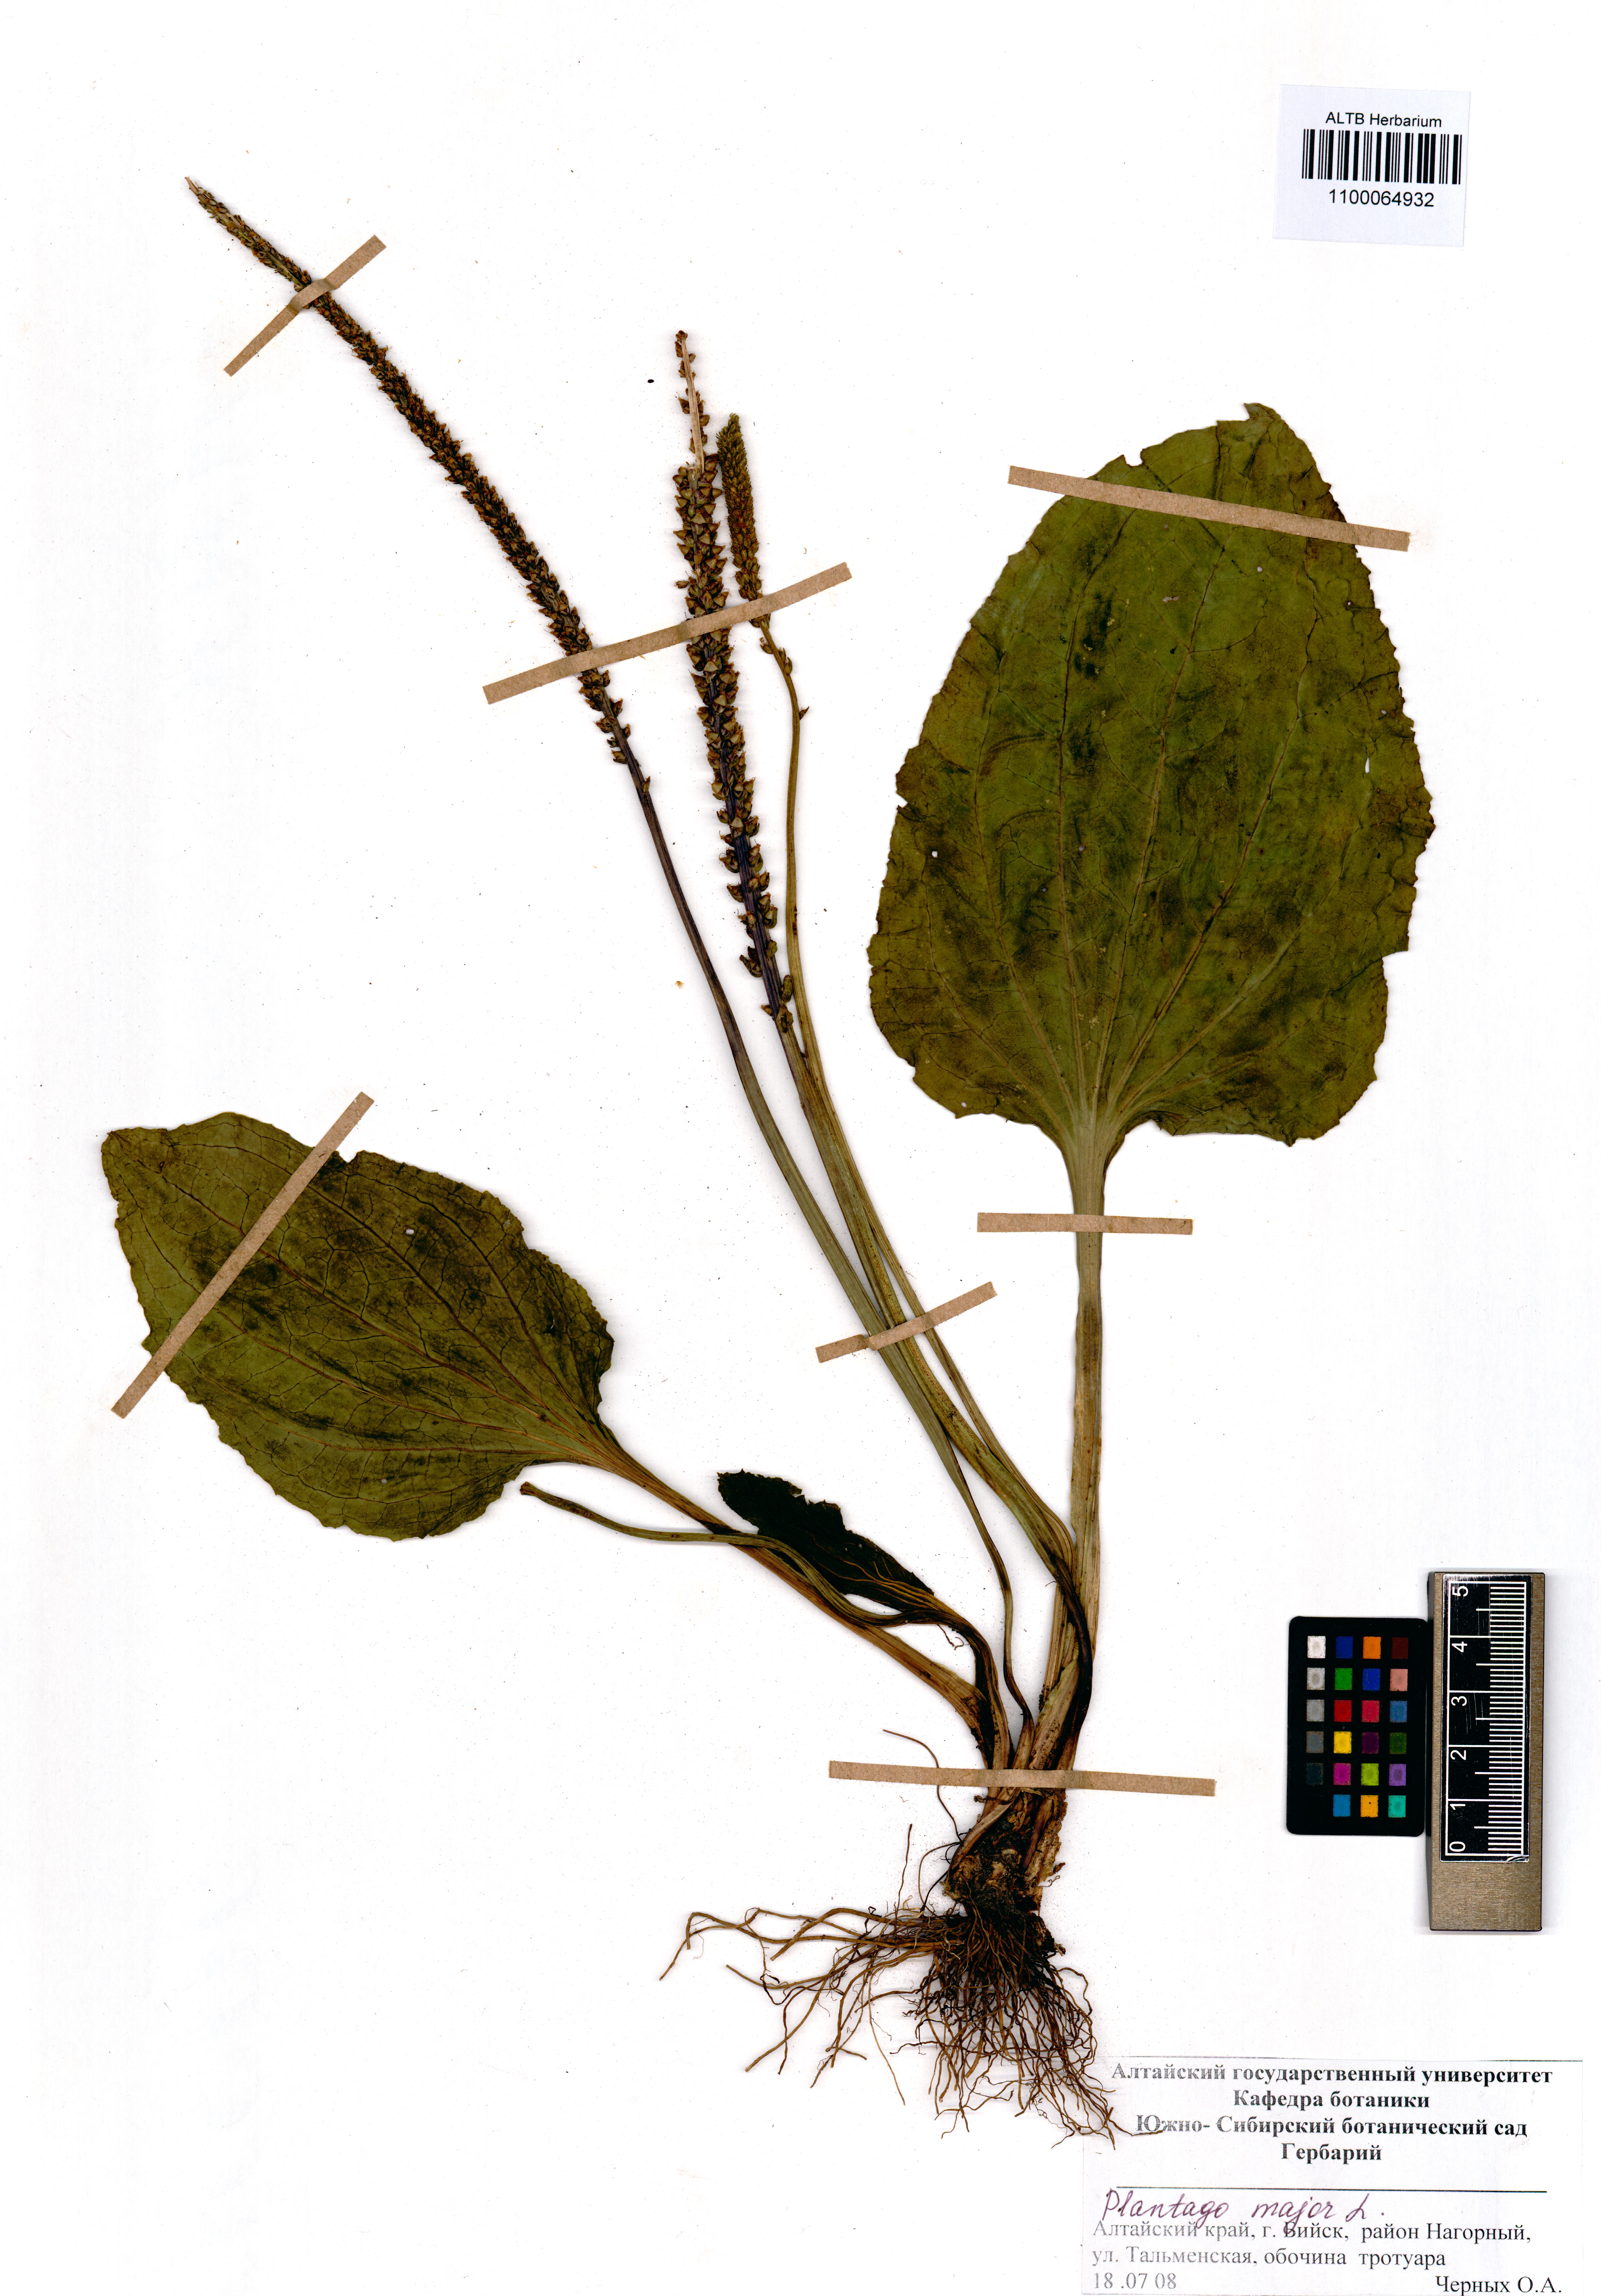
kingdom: Plantae
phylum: Tracheophyta
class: Magnoliopsida
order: Lamiales
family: Plantaginaceae
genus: Plantago
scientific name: Plantago major
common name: Common plantain
